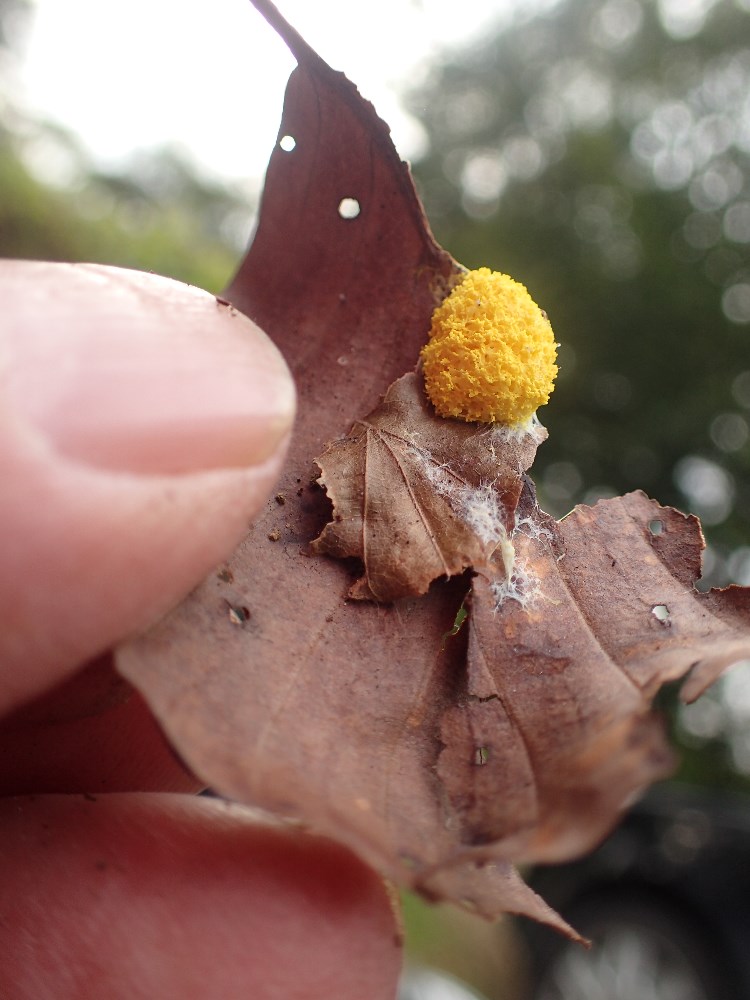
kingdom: Protozoa
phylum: Mycetozoa
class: Myxomycetes
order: Physarales
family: Physaraceae
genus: Fuligo
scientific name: Fuligo septica
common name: gul troldsmør
